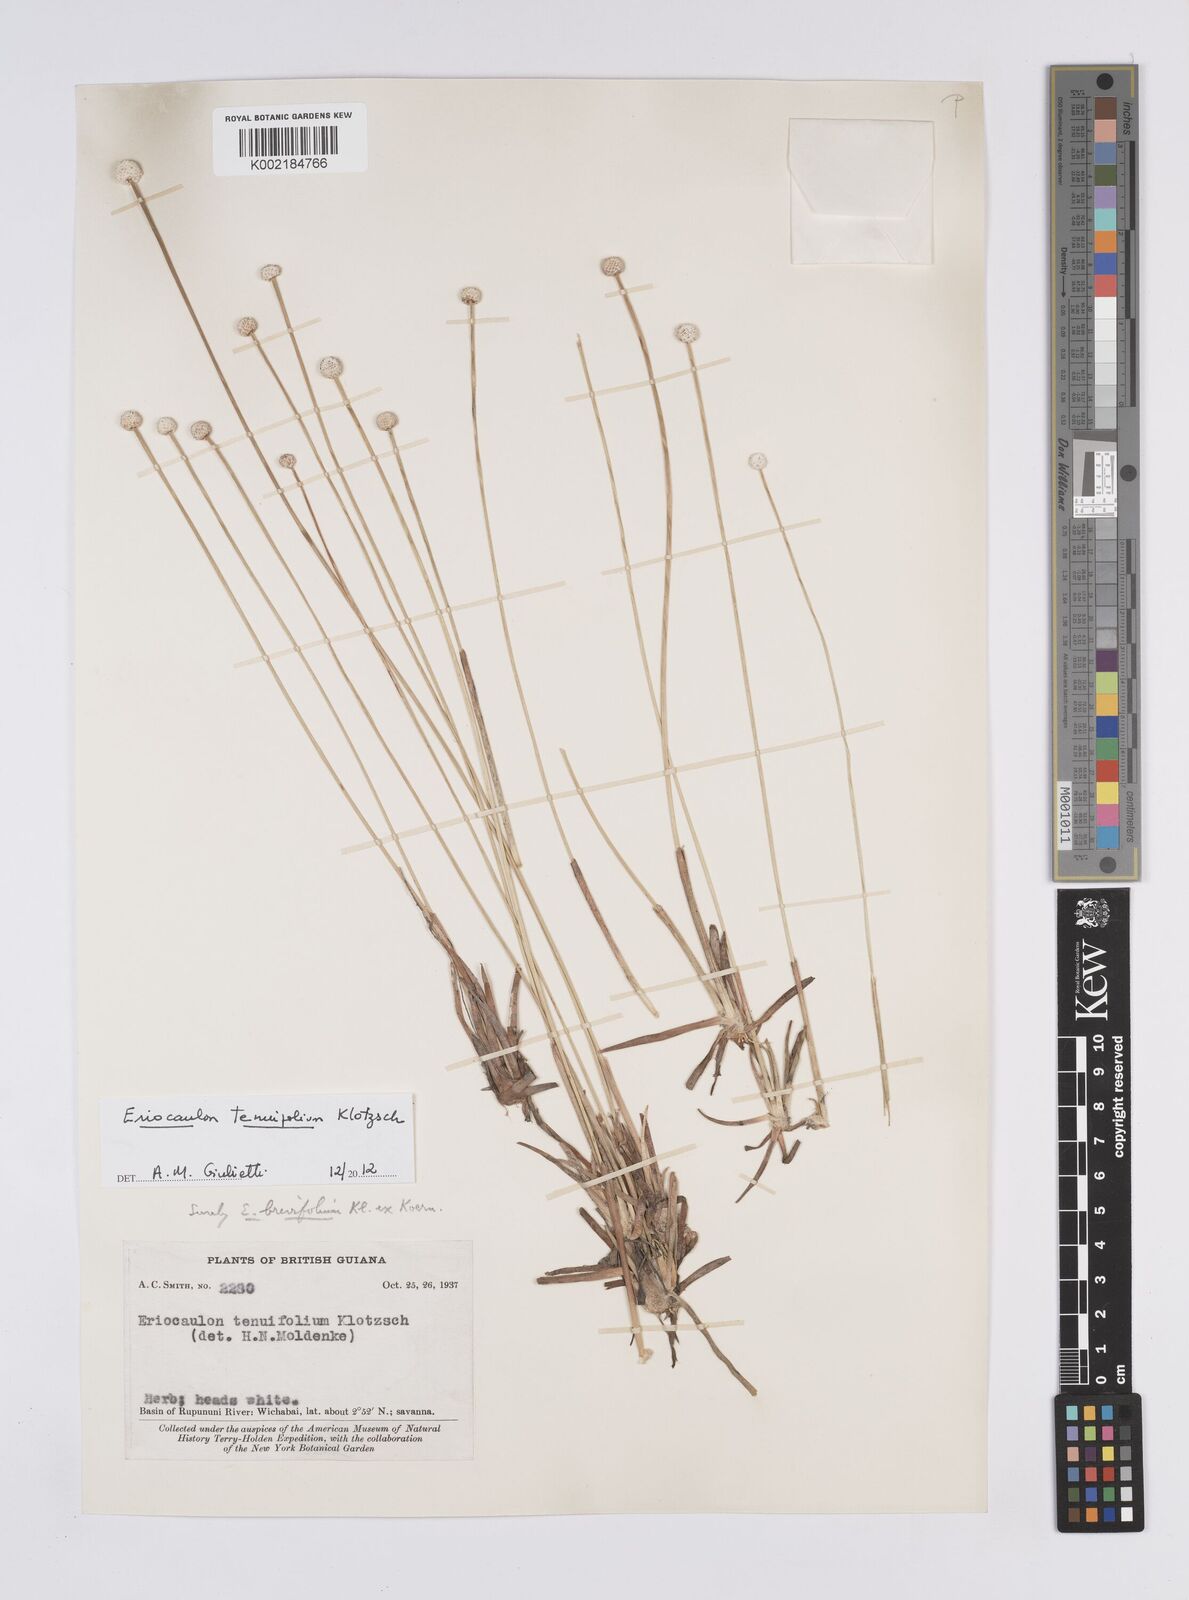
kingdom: Plantae
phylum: Tracheophyta
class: Liliopsida
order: Poales
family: Eriocaulaceae
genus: Eriocaulon
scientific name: Eriocaulon tenuifolium
